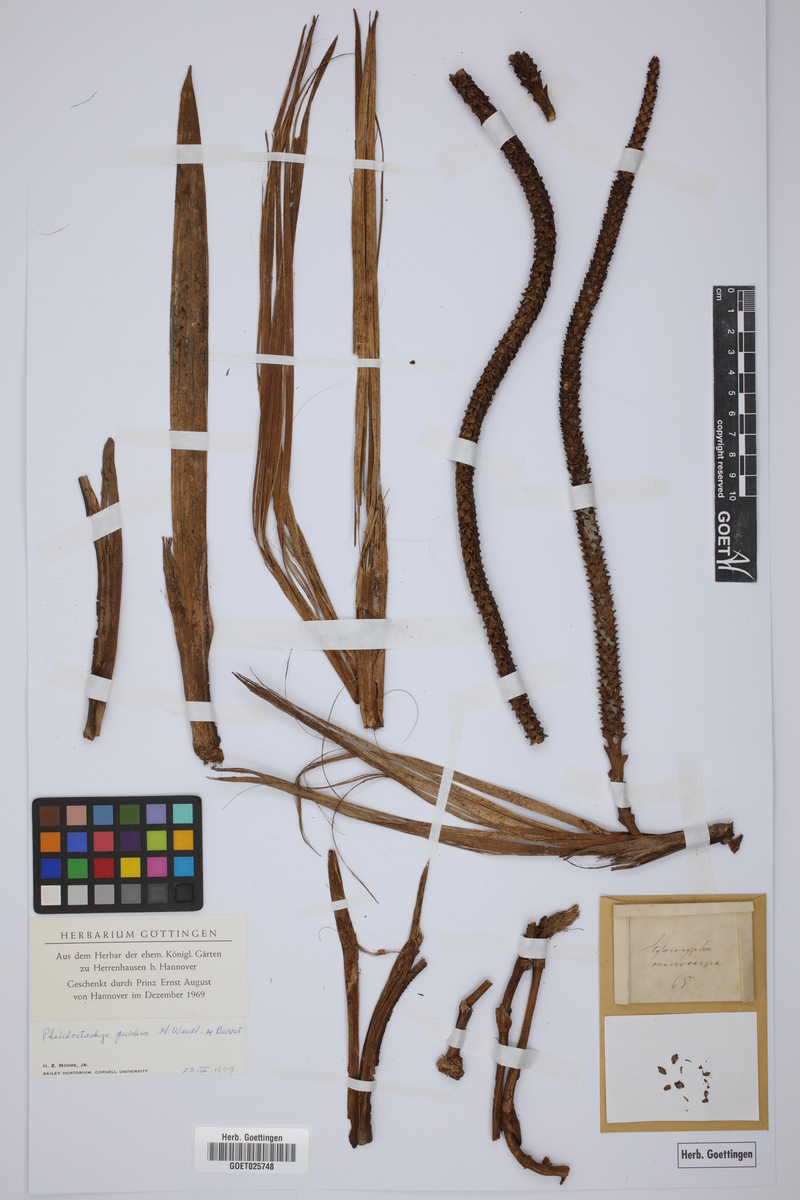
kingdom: Plantae
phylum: Tracheophyta
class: Liliopsida
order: Arecales
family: Arecaceae
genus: Pholidostachys
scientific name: Pholidostachys pulchra
